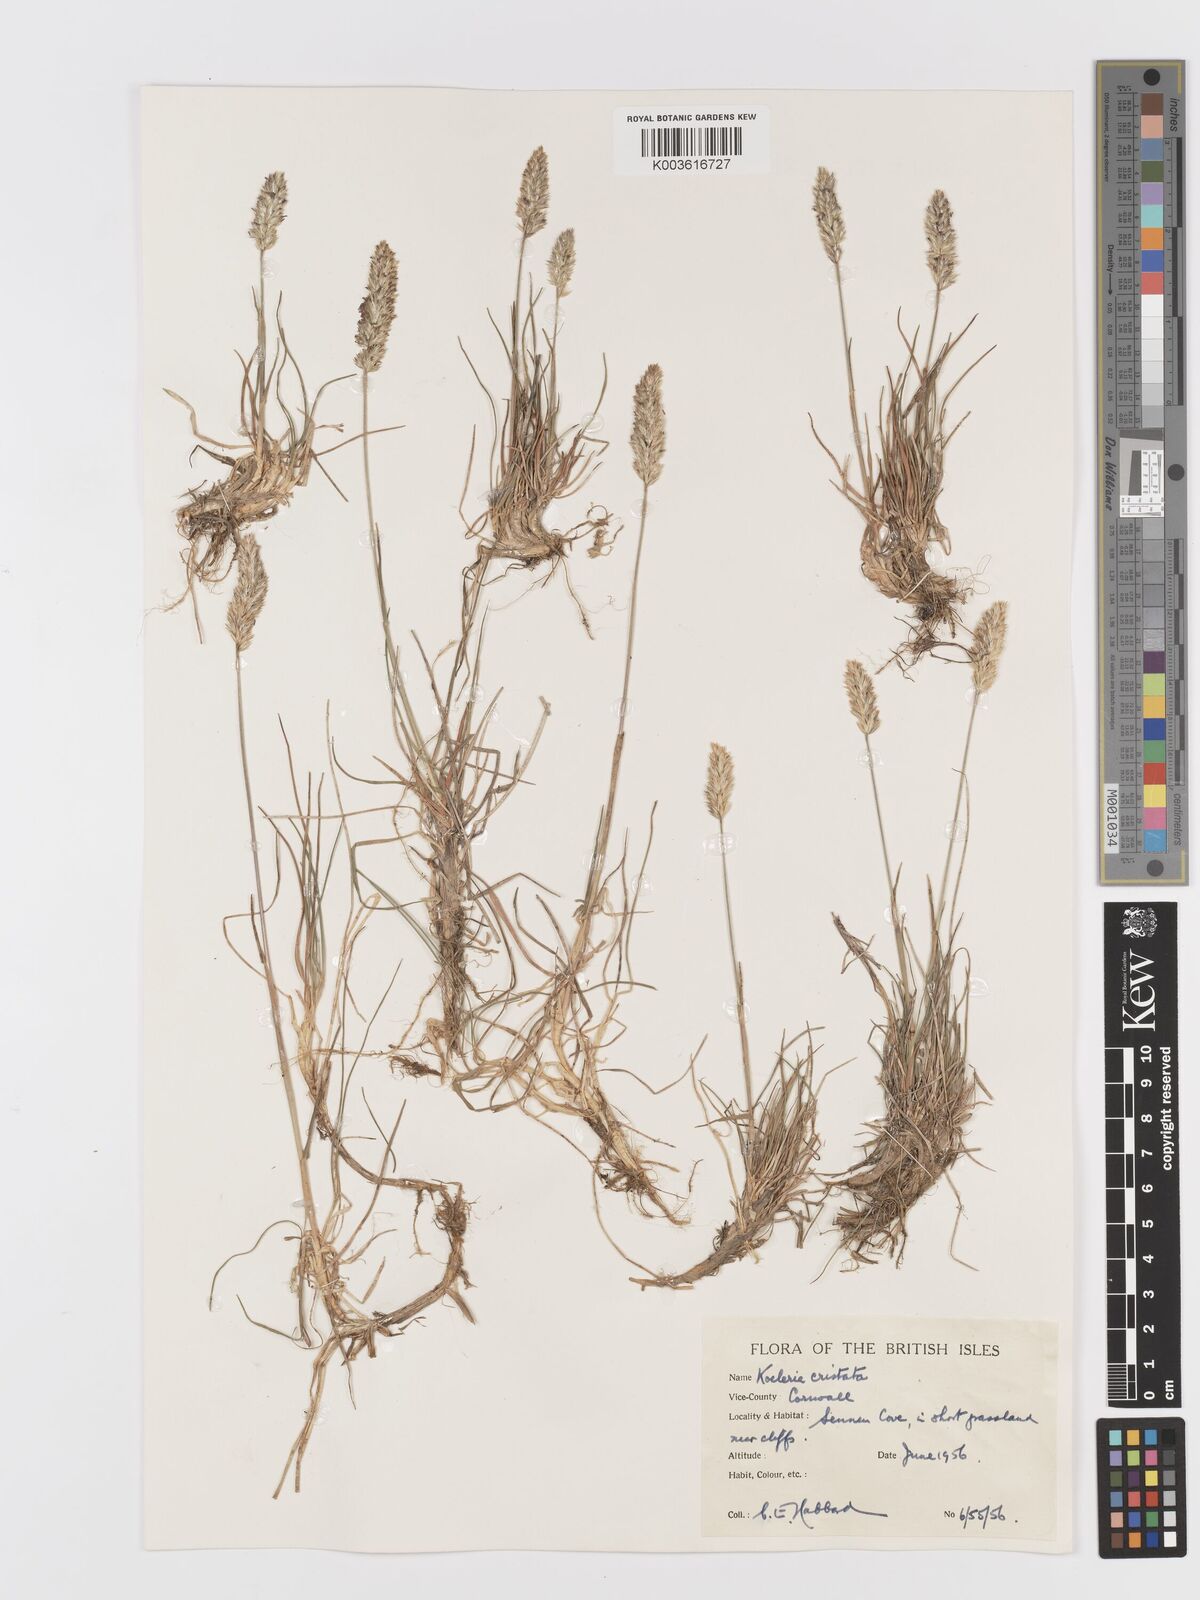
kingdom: Plantae
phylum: Tracheophyta
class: Liliopsida
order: Poales
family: Poaceae
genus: Koeleria
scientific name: Koeleria
